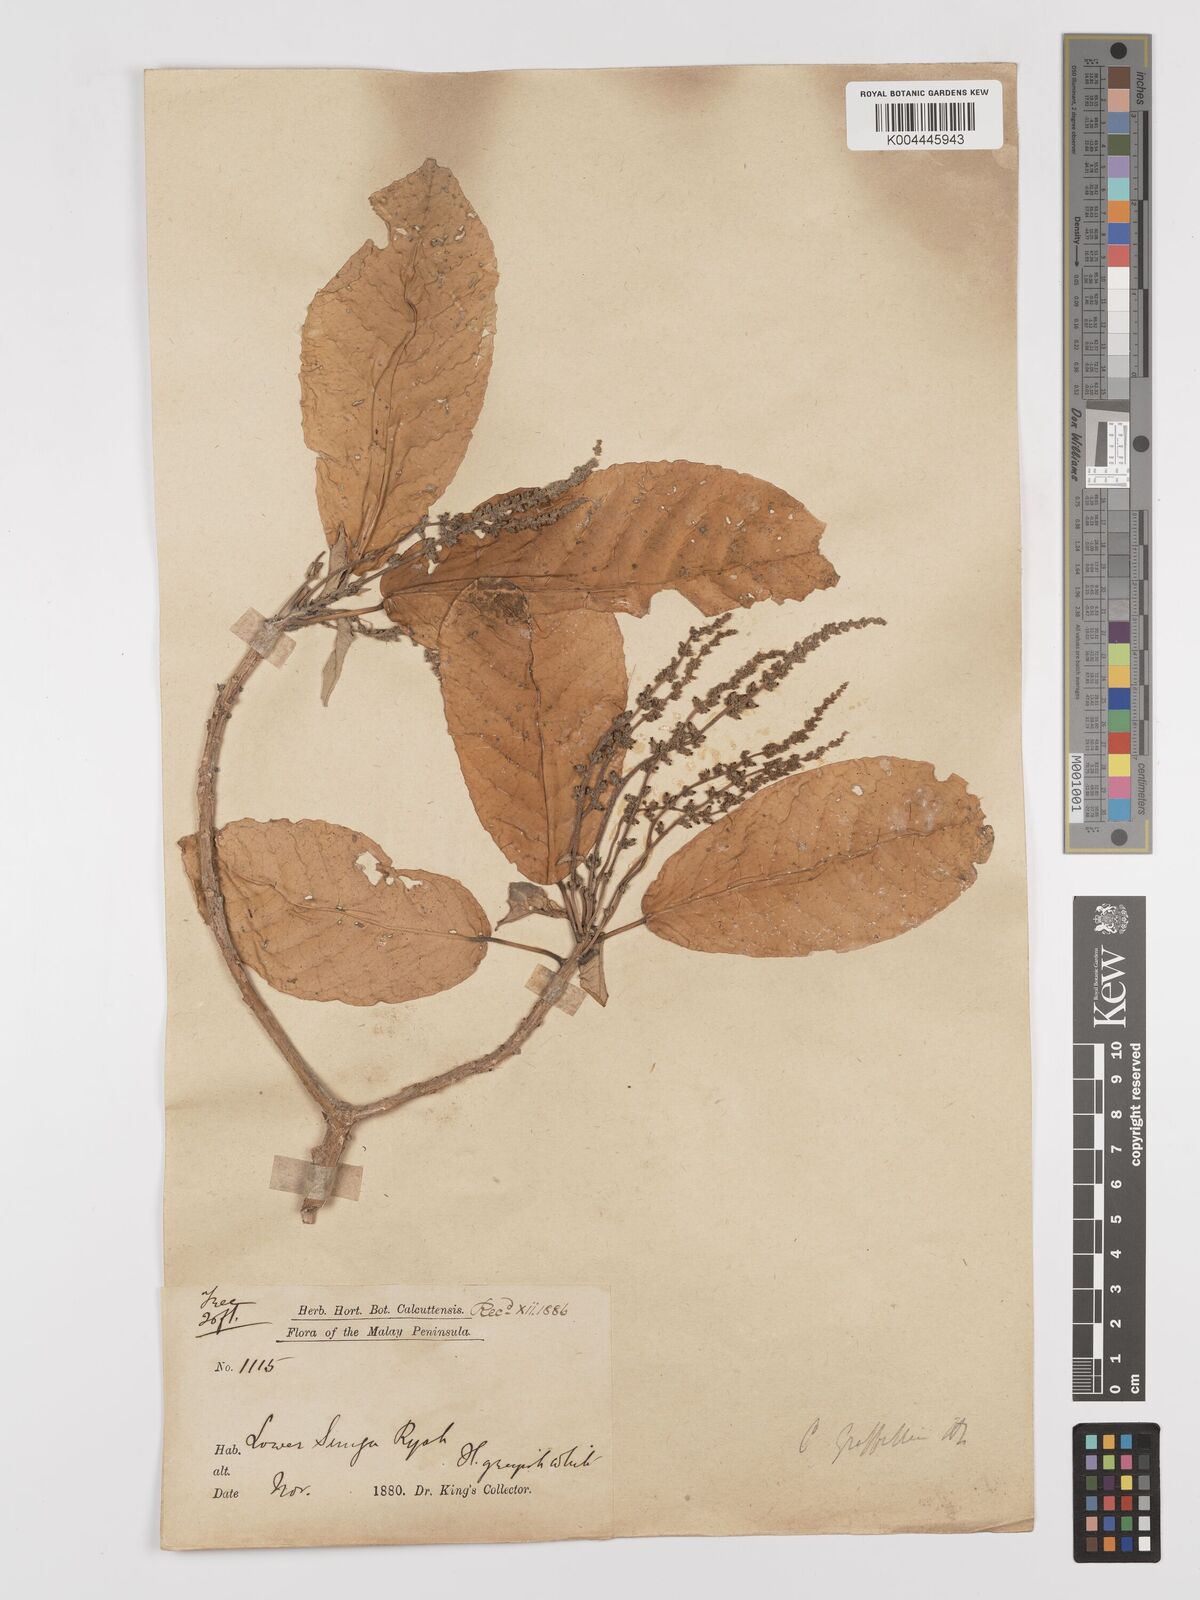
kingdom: Plantae
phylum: Tracheophyta
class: Magnoliopsida
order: Malpighiales
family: Euphorbiaceae
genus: Croton
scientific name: Croton griffithii
